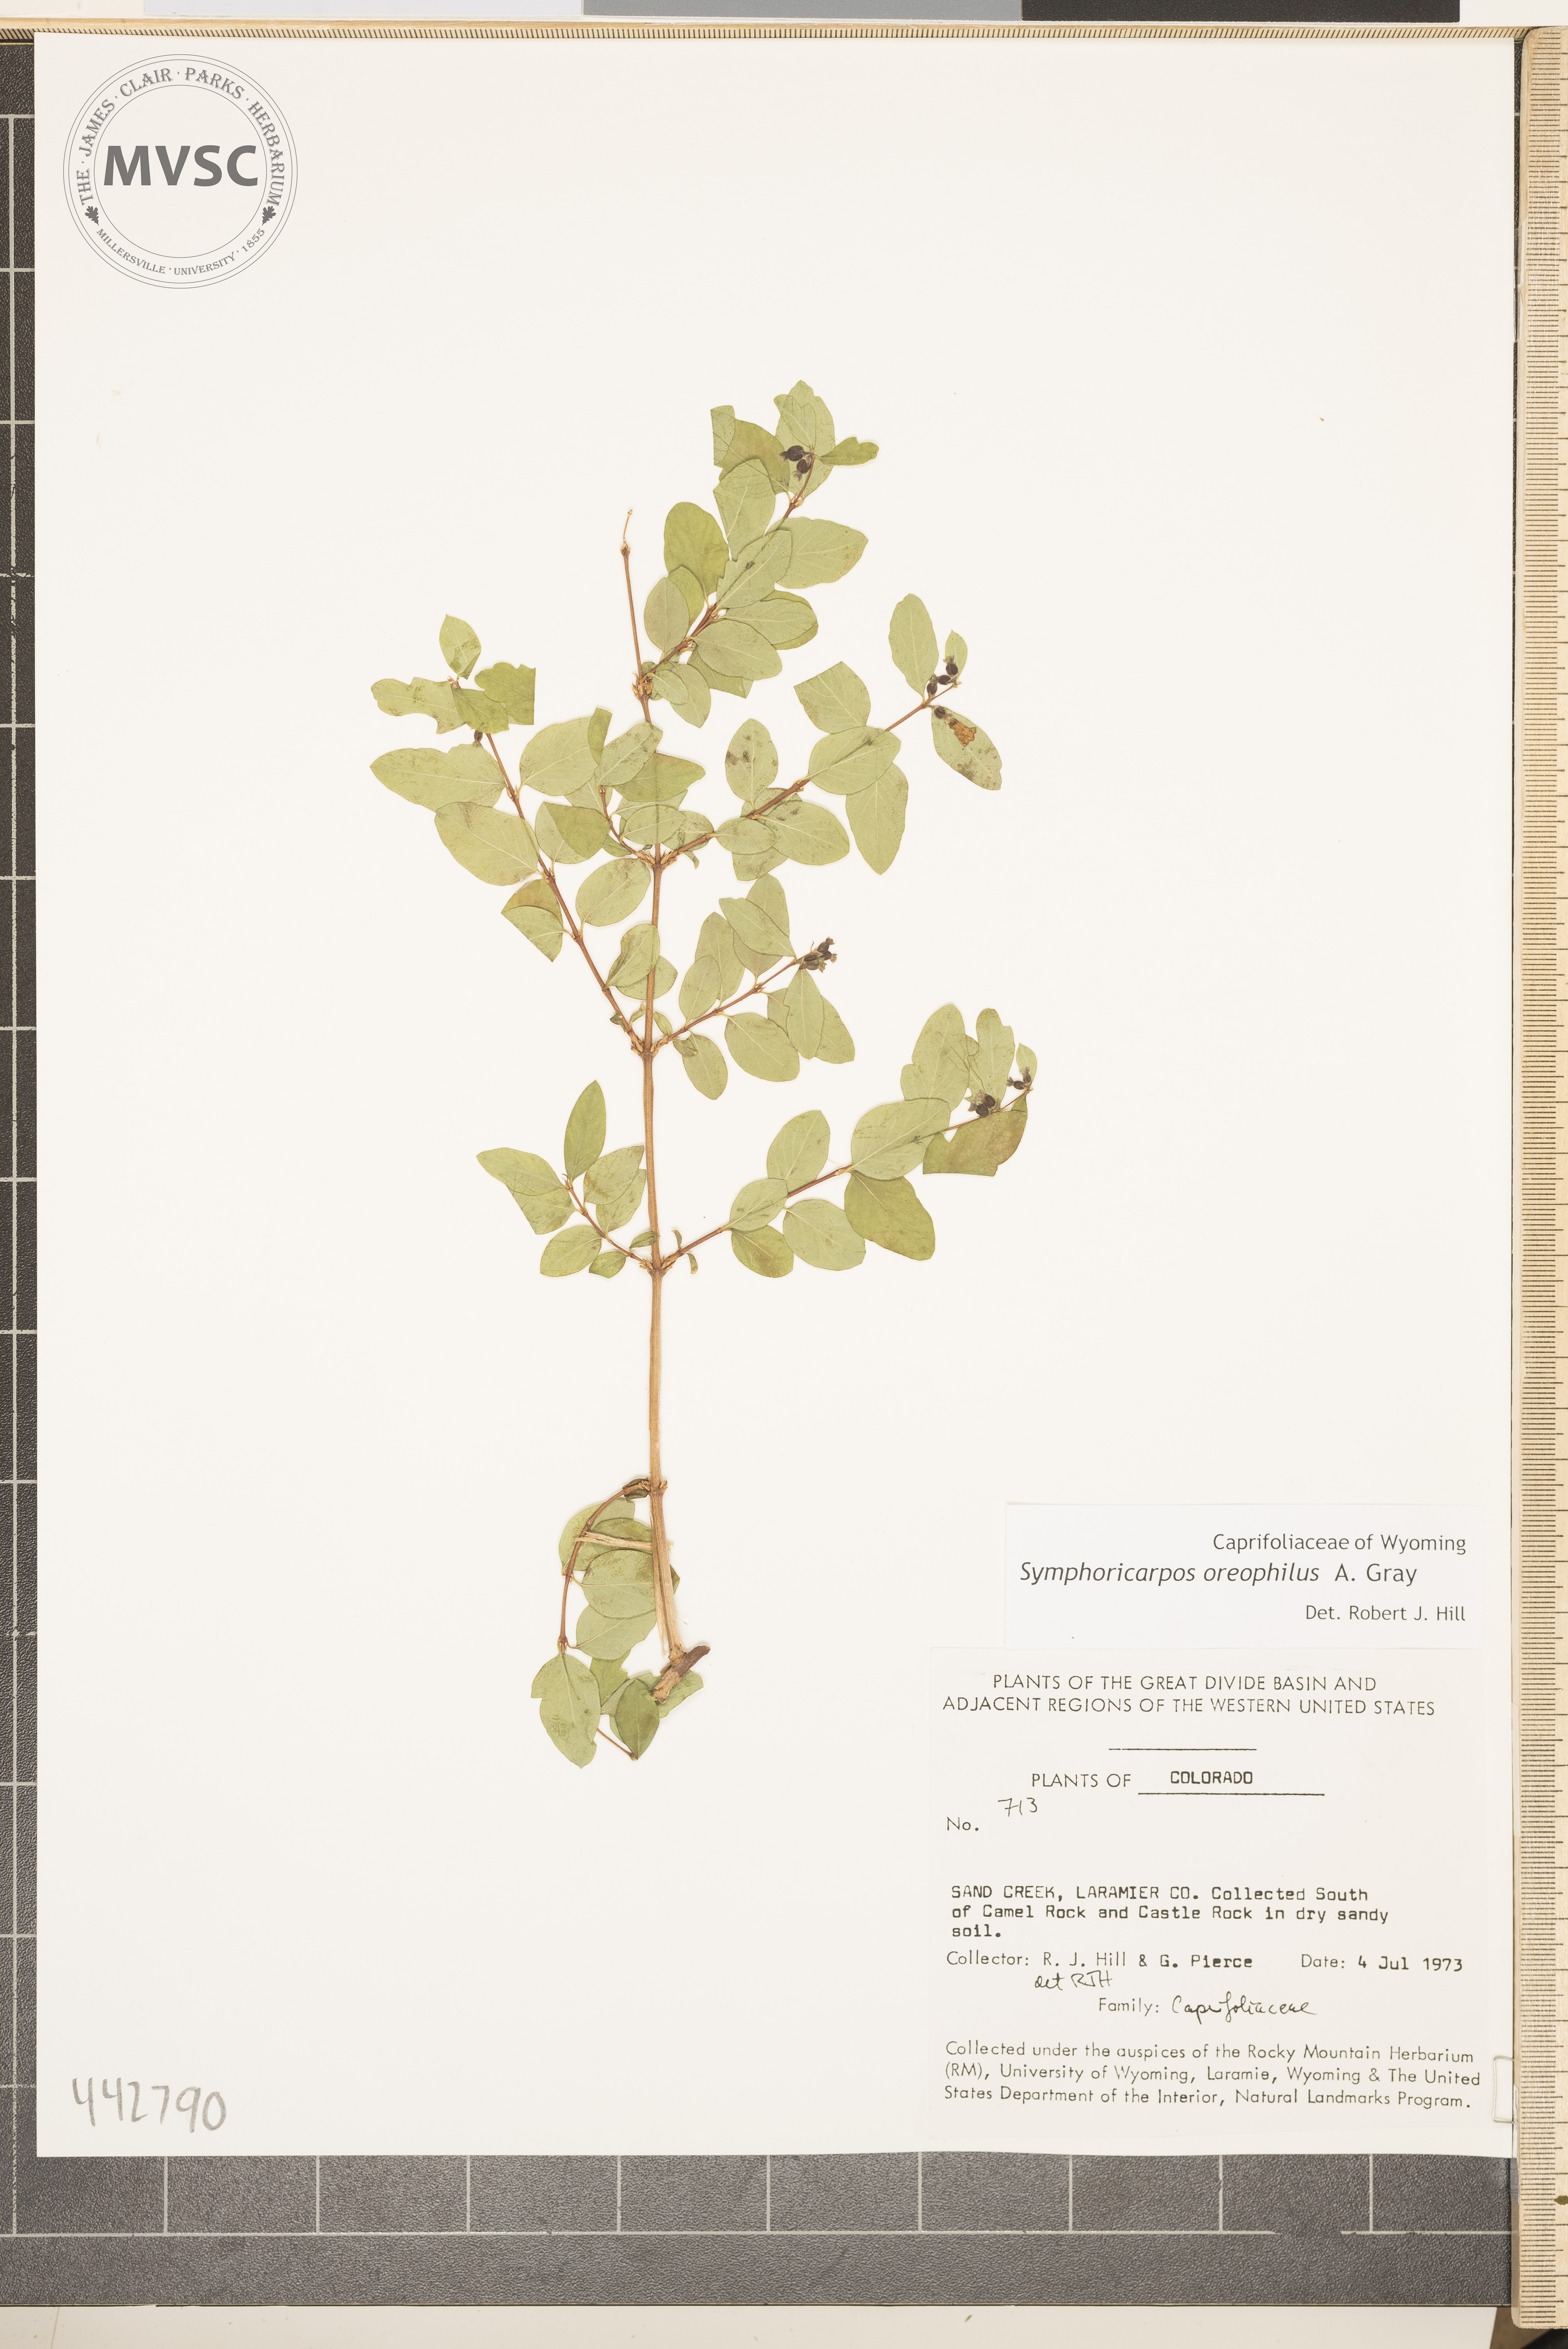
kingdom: Plantae
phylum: Tracheophyta
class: Magnoliopsida
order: Dipsacales
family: Caprifoliaceae
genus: Symphoricarpos
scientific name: Symphoricarpos oreophilus
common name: Mountain snowberry
